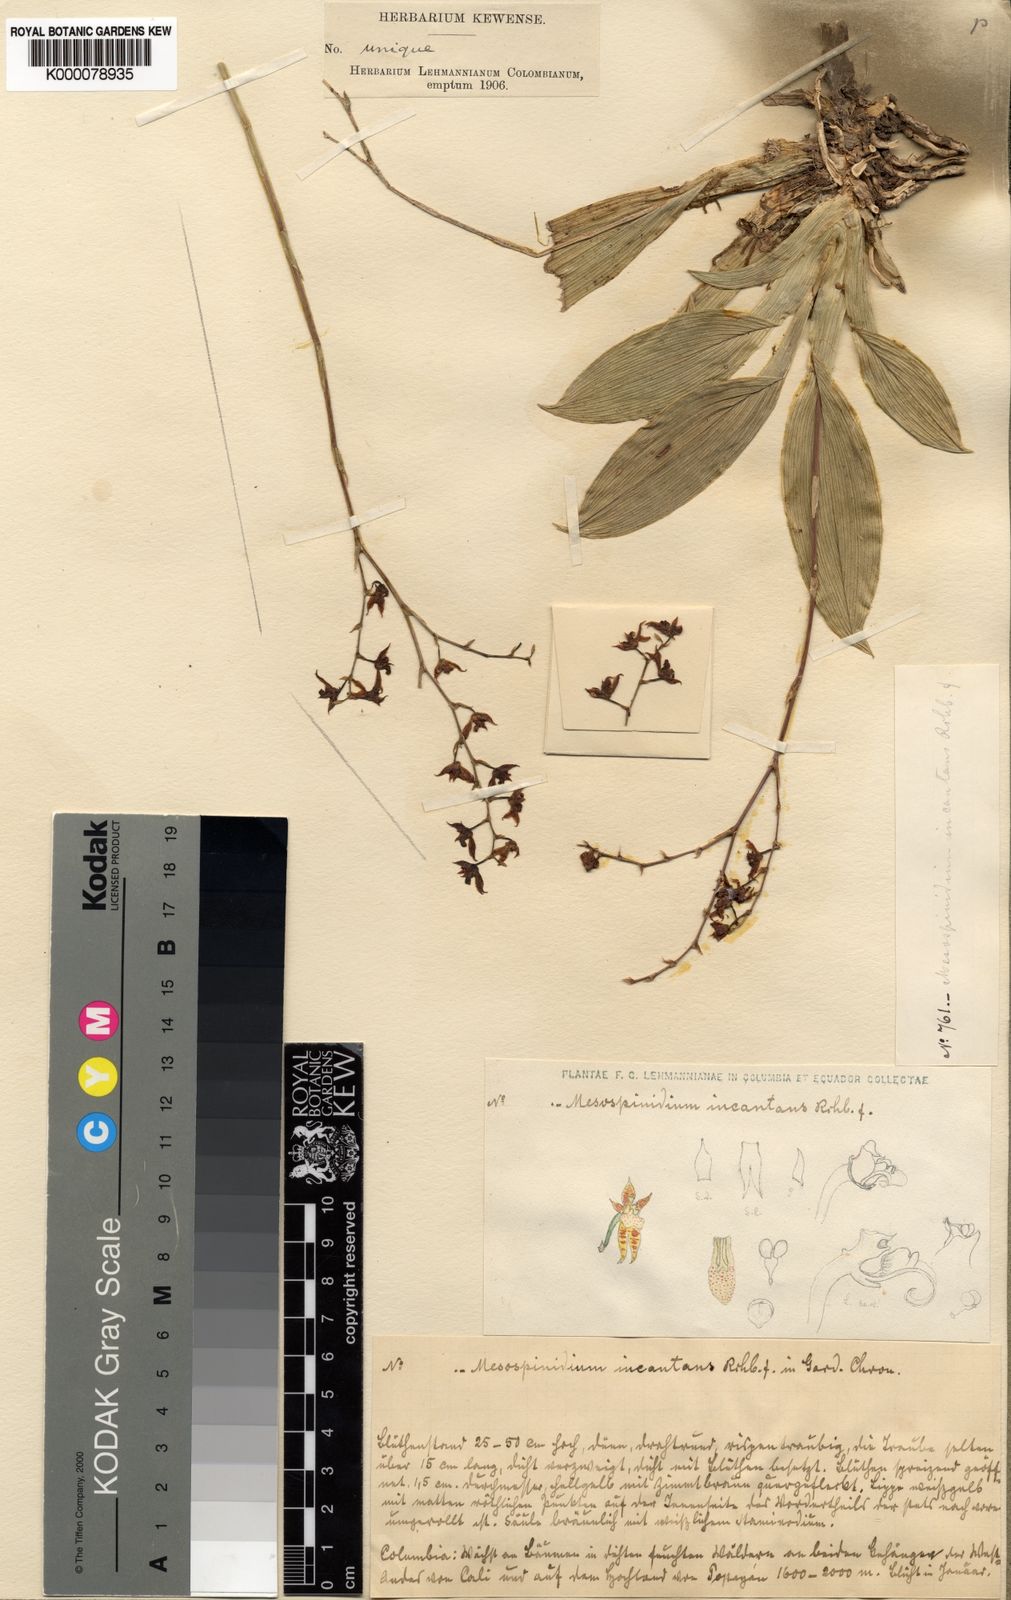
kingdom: Plantae
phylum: Tracheophyta
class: Liliopsida
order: Asparagales
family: Orchidaceae
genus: Brassia
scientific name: Brassia incantans
